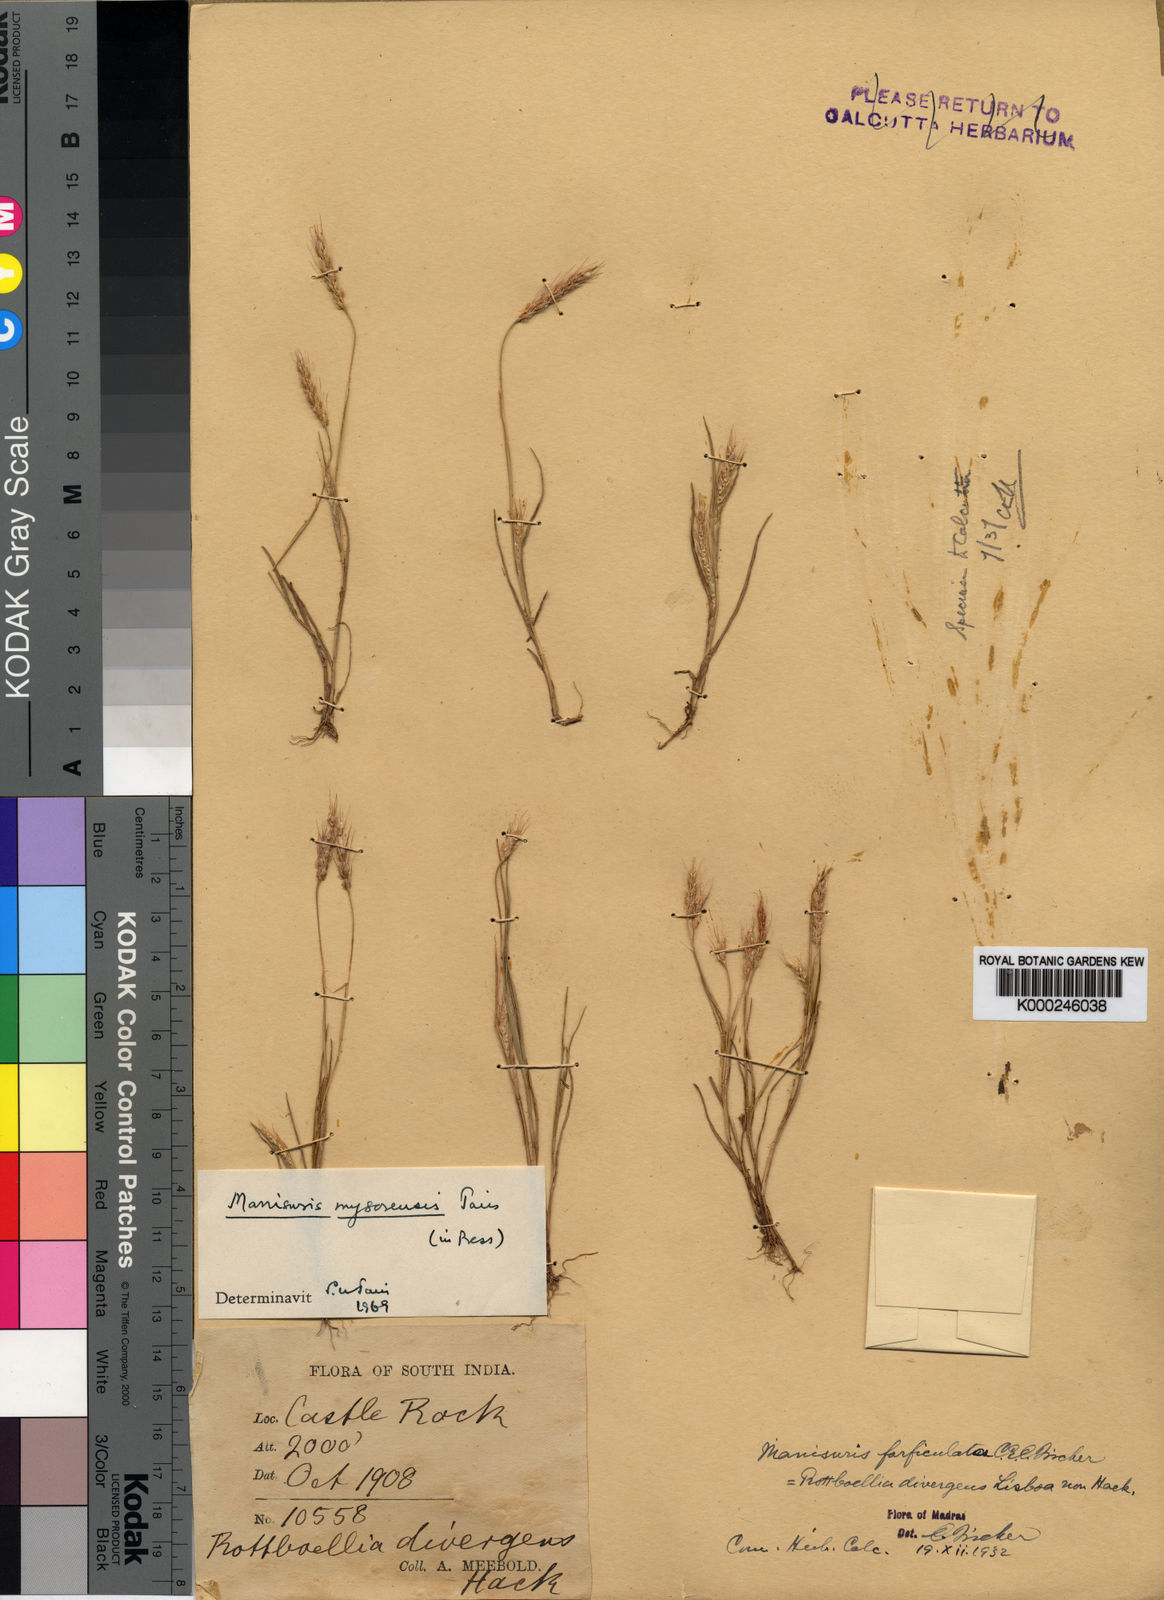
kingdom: Plantae
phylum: Tracheophyta
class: Liliopsida
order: Poales
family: Poaceae
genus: Glyphochloa
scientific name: Glyphochloa mysorensis
